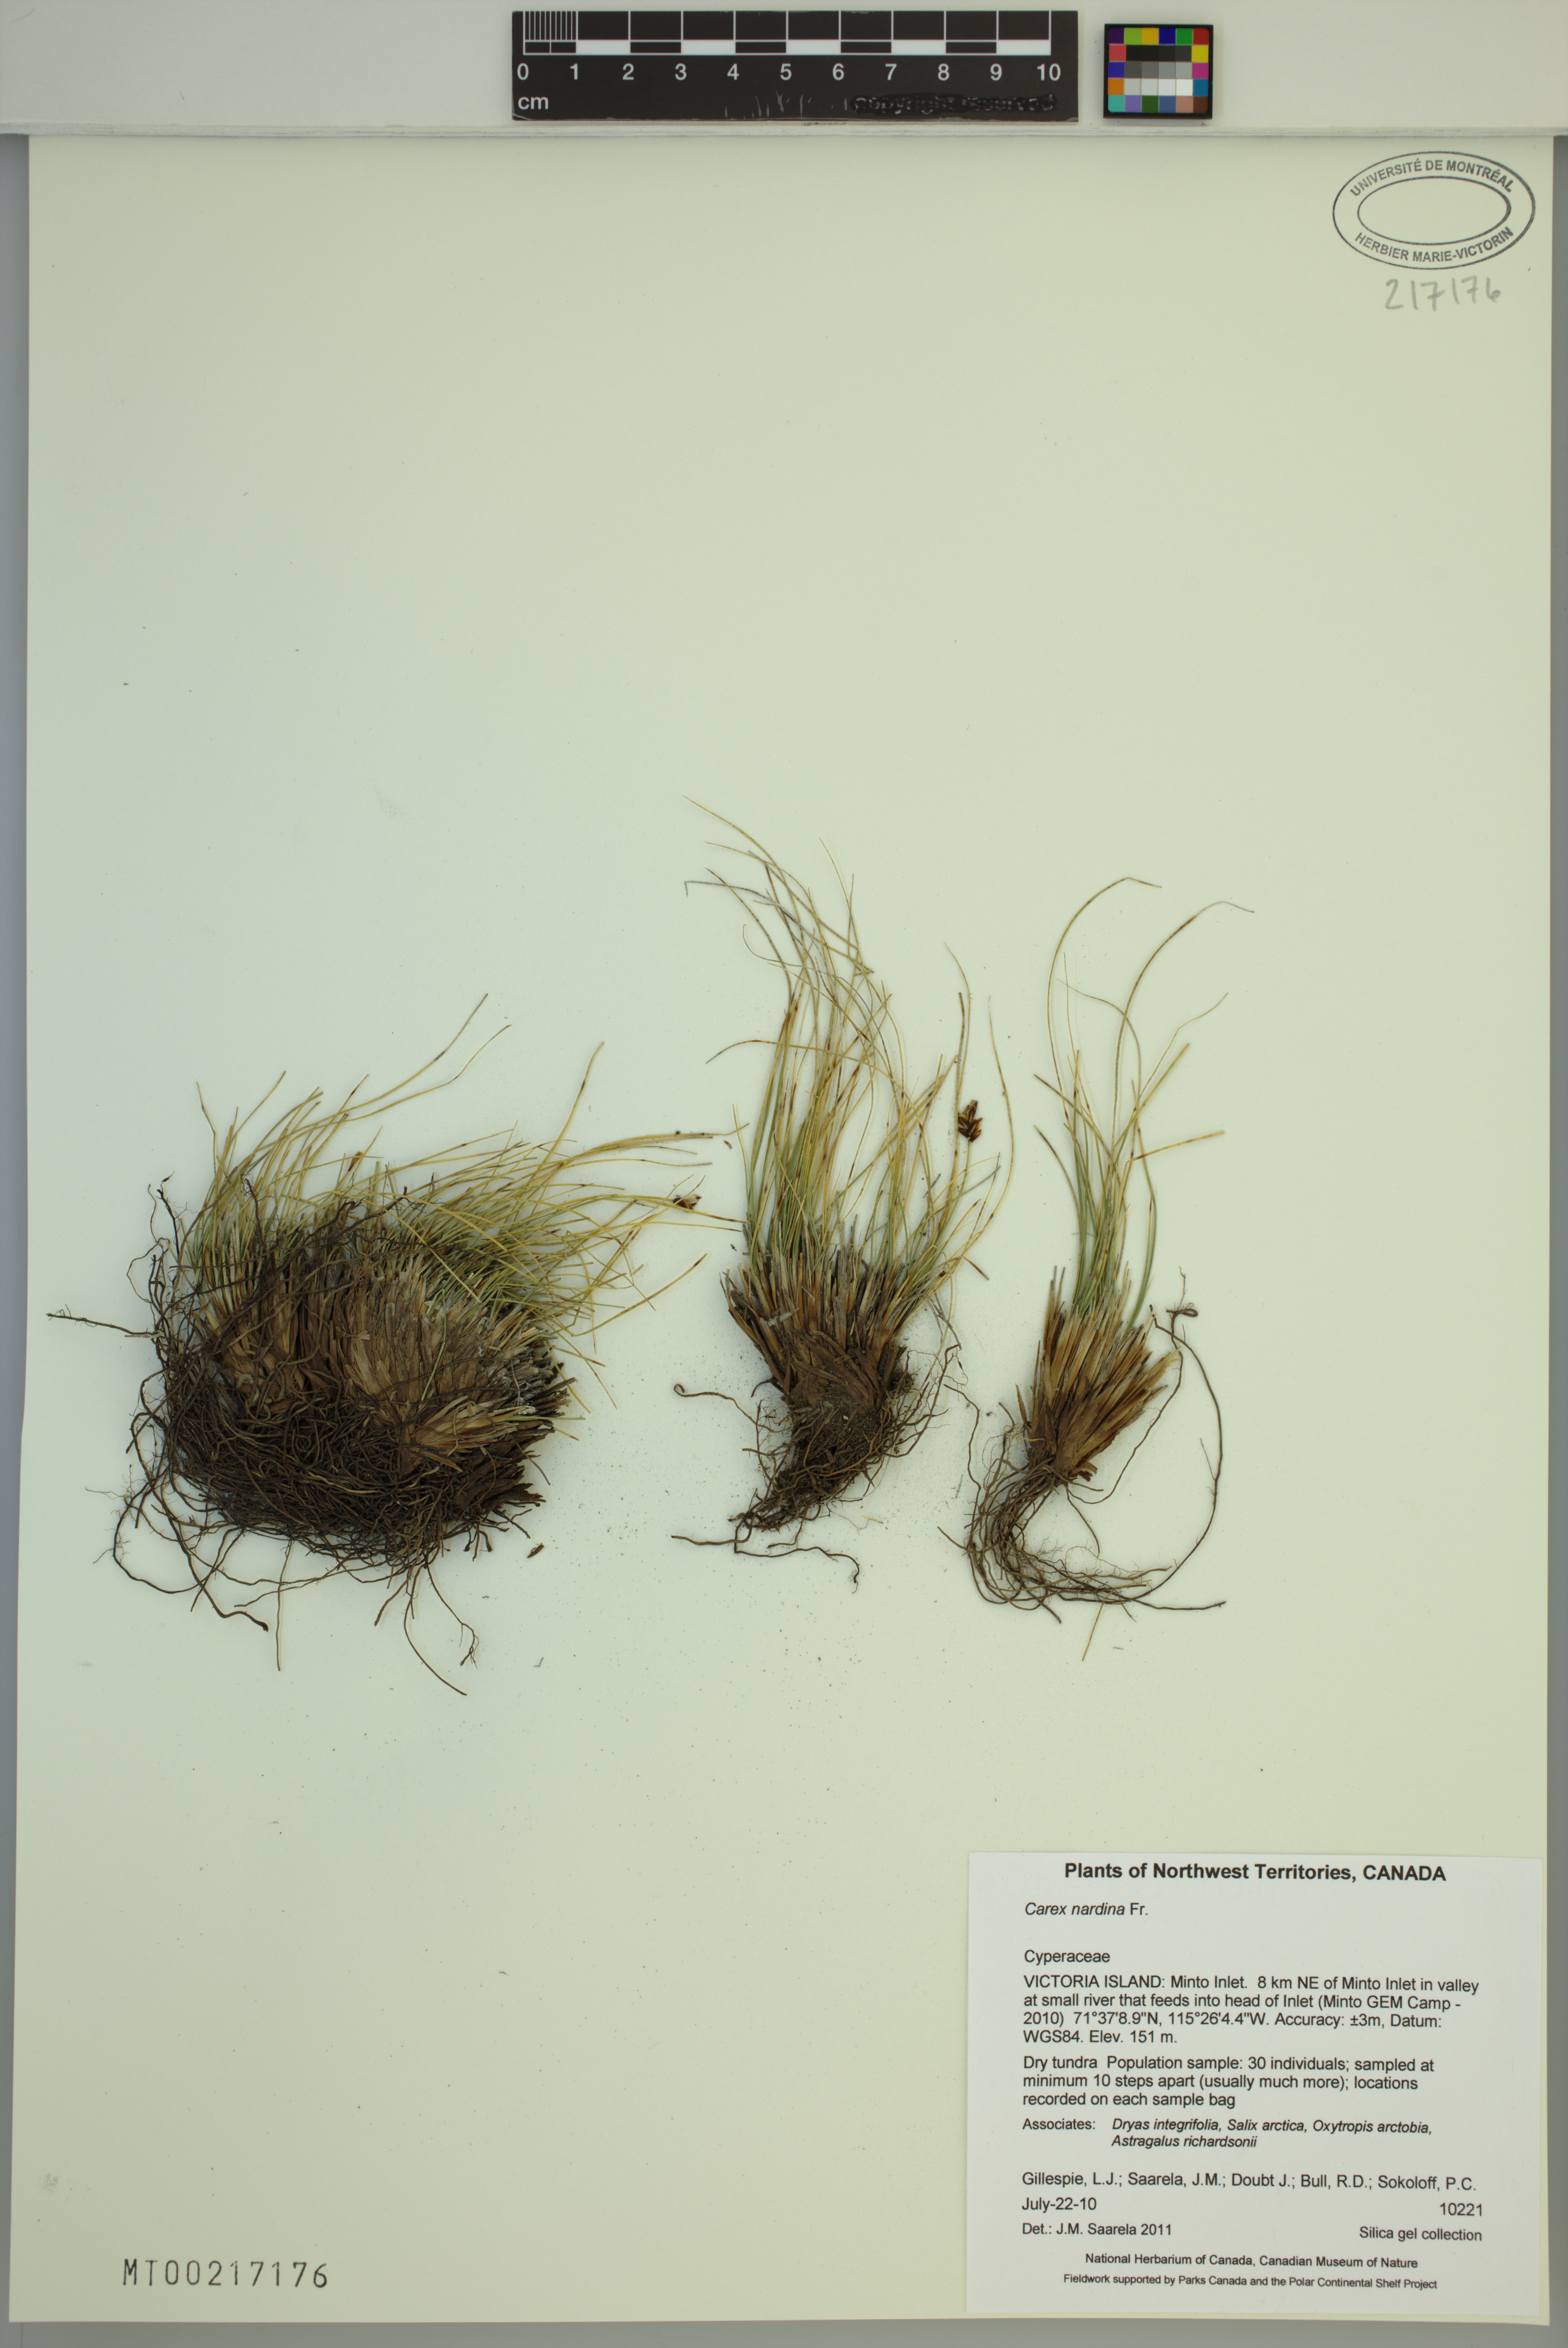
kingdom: Plantae
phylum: Tracheophyta
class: Liliopsida
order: Poales
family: Cyperaceae
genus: Carex
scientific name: Carex nardina
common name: Nard sedge
